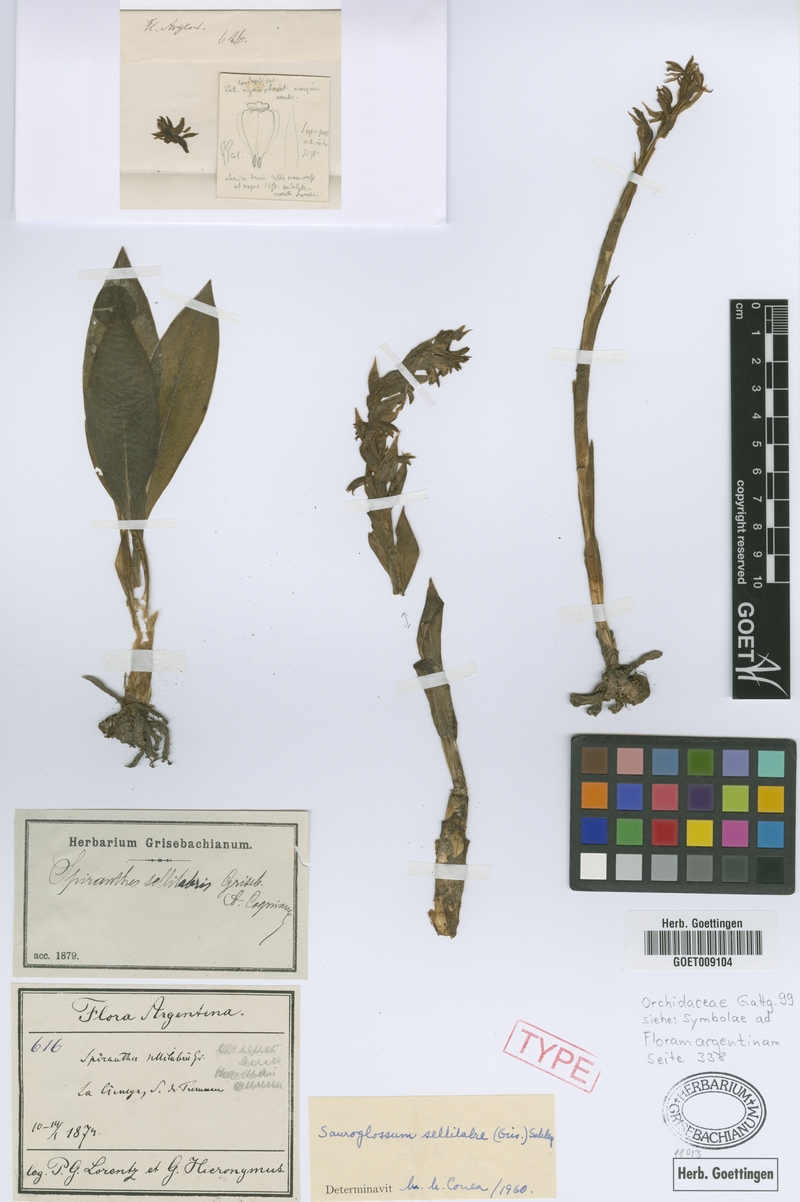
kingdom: Plantae
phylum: Tracheophyta
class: Liliopsida
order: Asparagales
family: Orchidaceae
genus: Sauroglossum
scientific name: Sauroglossum sellilabre
